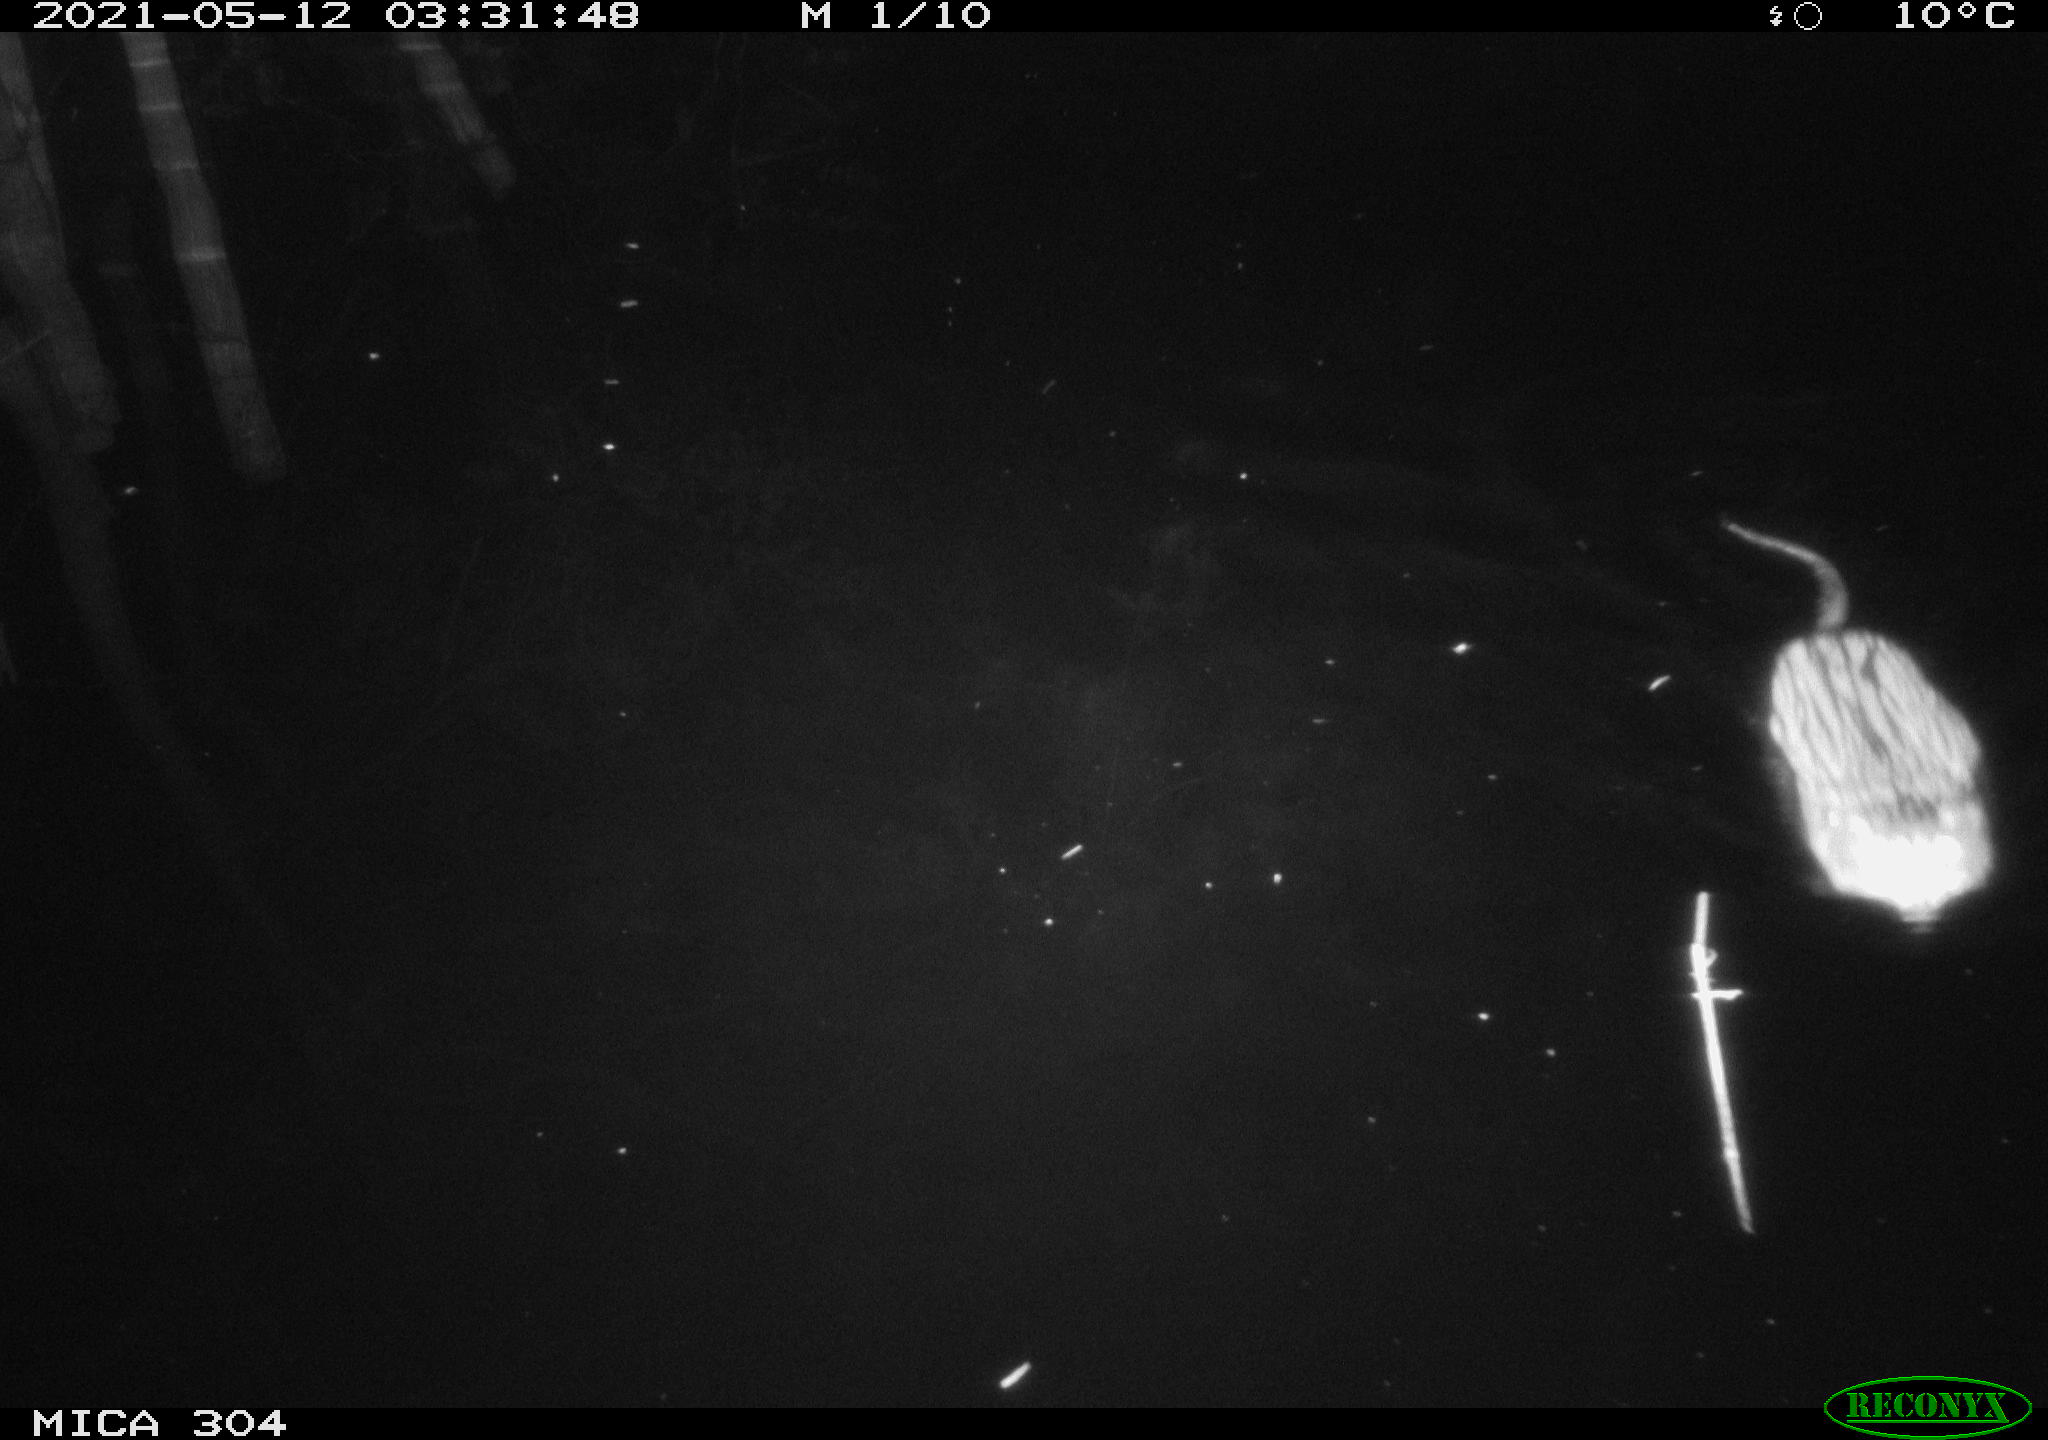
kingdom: Animalia
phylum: Chordata
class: Mammalia
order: Rodentia
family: Cricetidae
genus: Ondatra
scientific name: Ondatra zibethicus
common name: Muskrat
